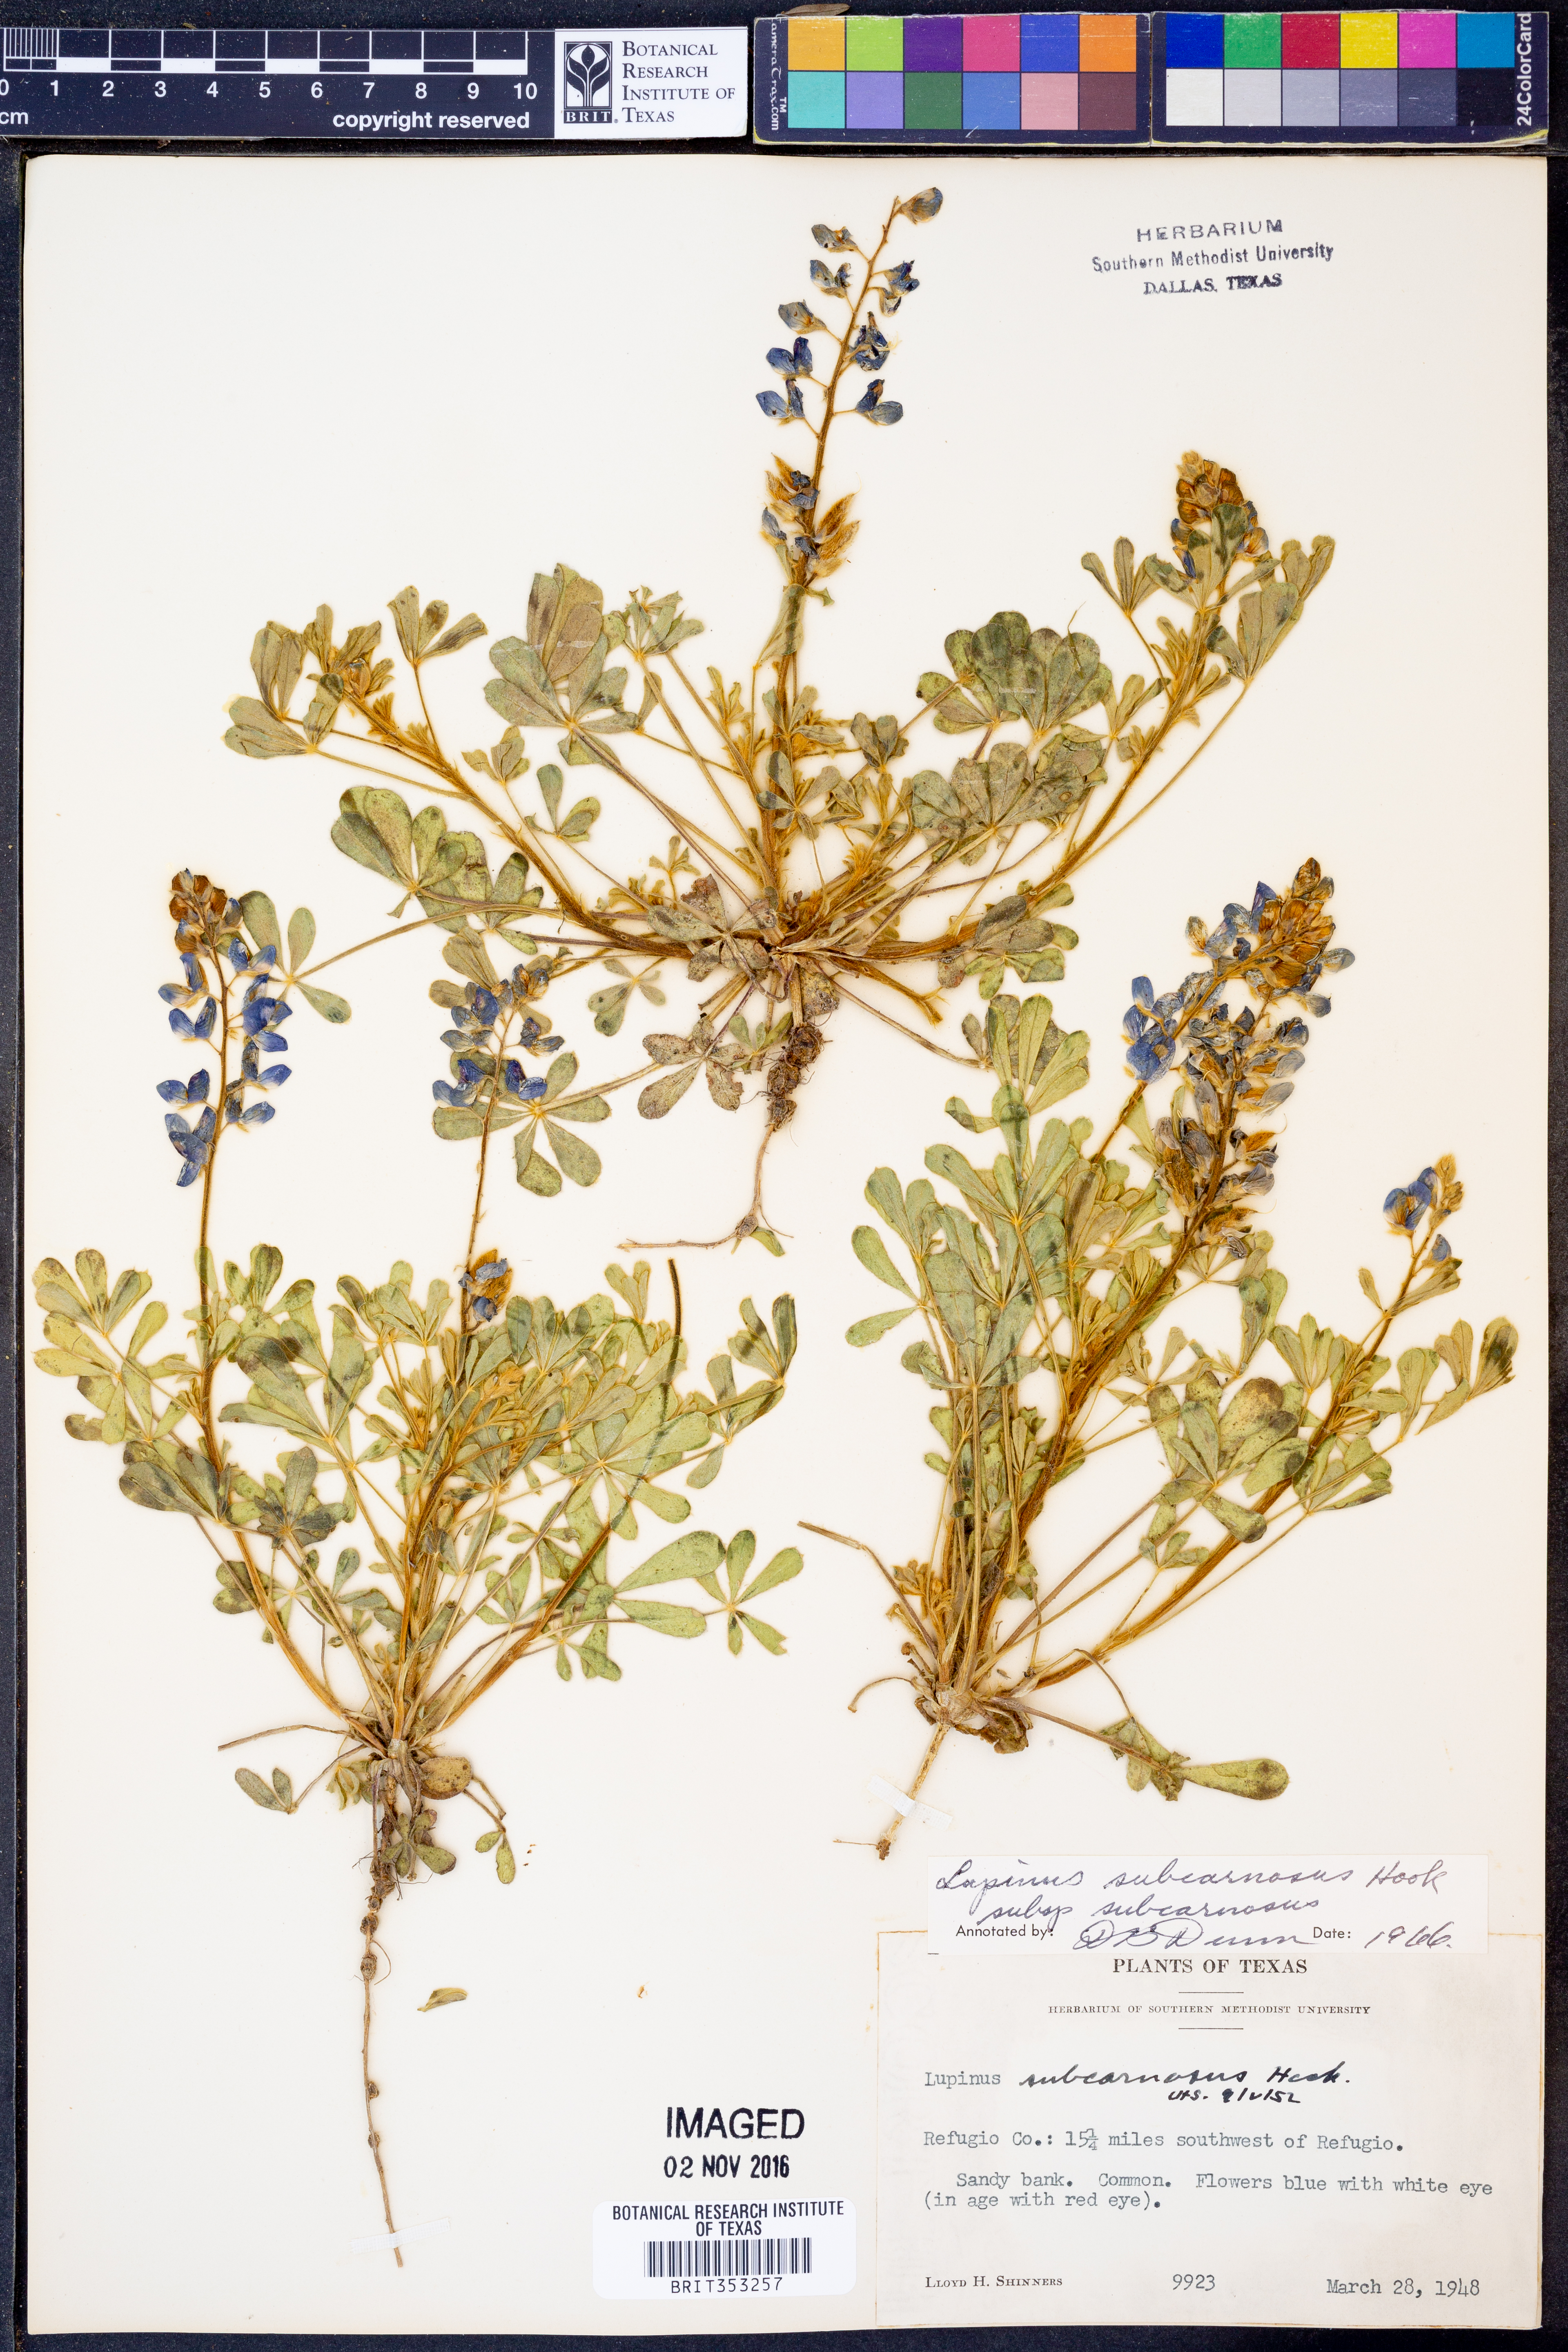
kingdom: Plantae
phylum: Tracheophyta
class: Magnoliopsida
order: Fabales
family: Fabaceae
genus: Lupinus
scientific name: Lupinus subcarnosus
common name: Texas bluebonnet
